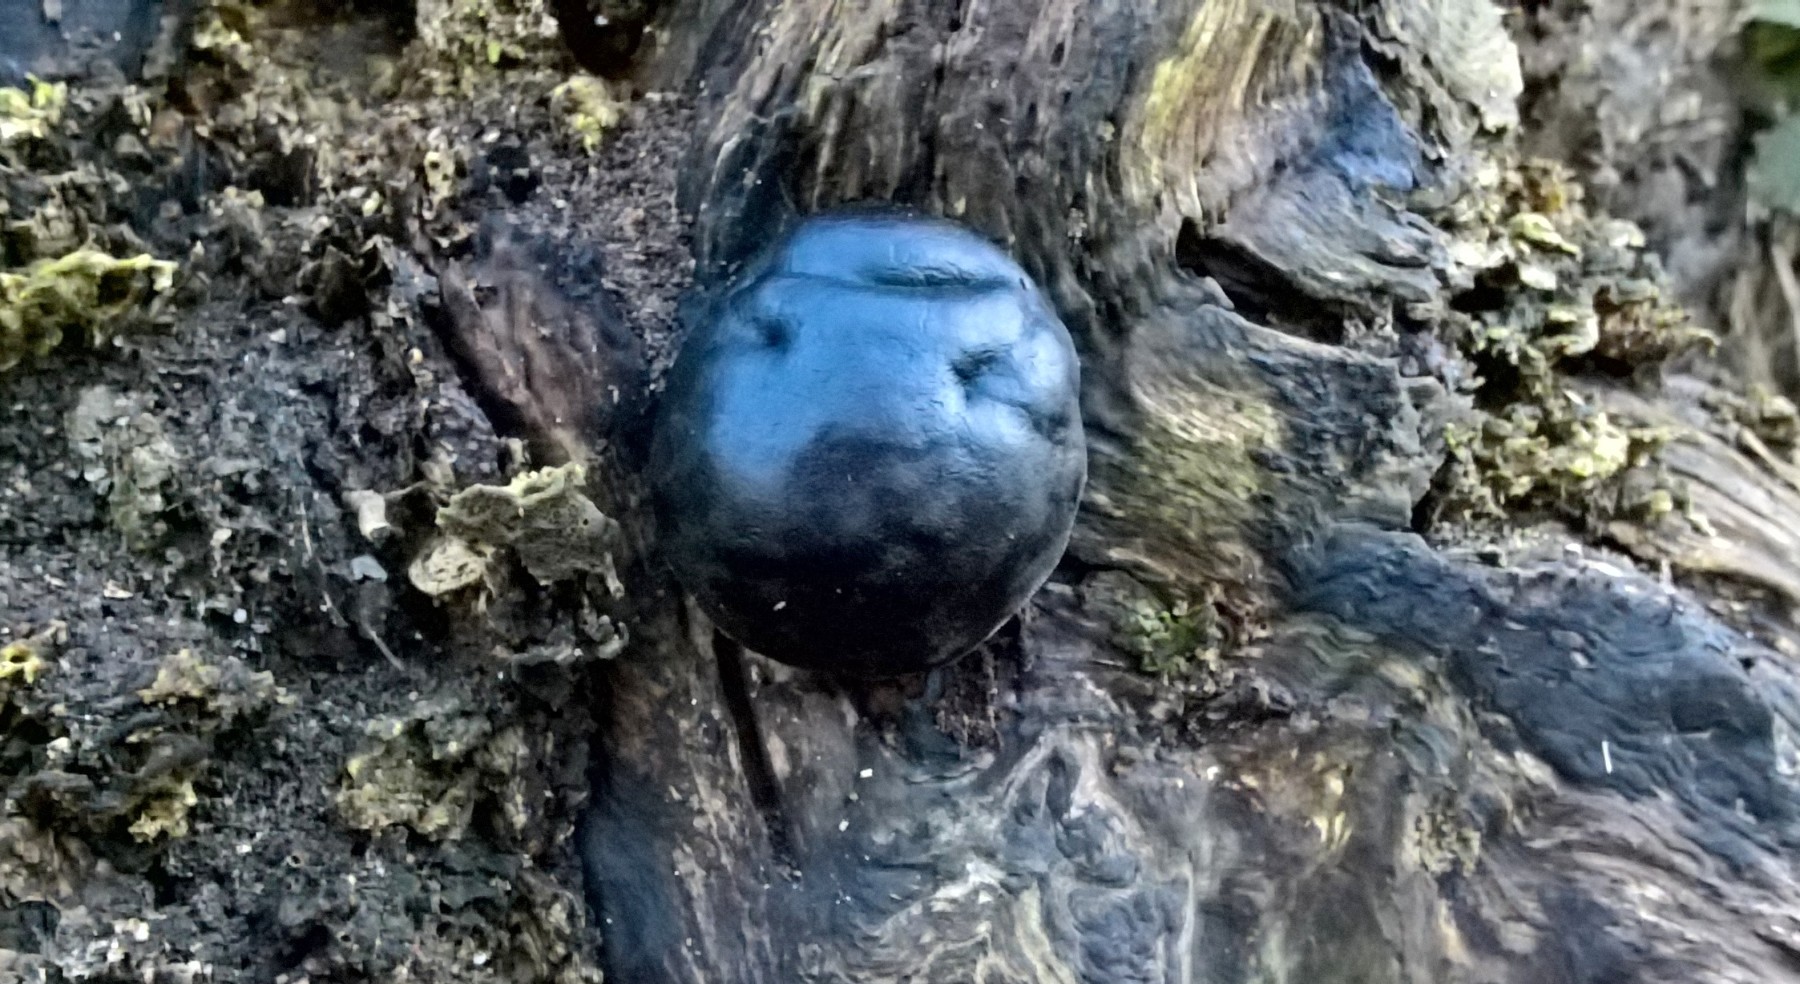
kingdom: Fungi
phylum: Ascomycota
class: Sordariomycetes
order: Xylariales
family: Hypoxylaceae
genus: Daldinia
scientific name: Daldinia concentrica
